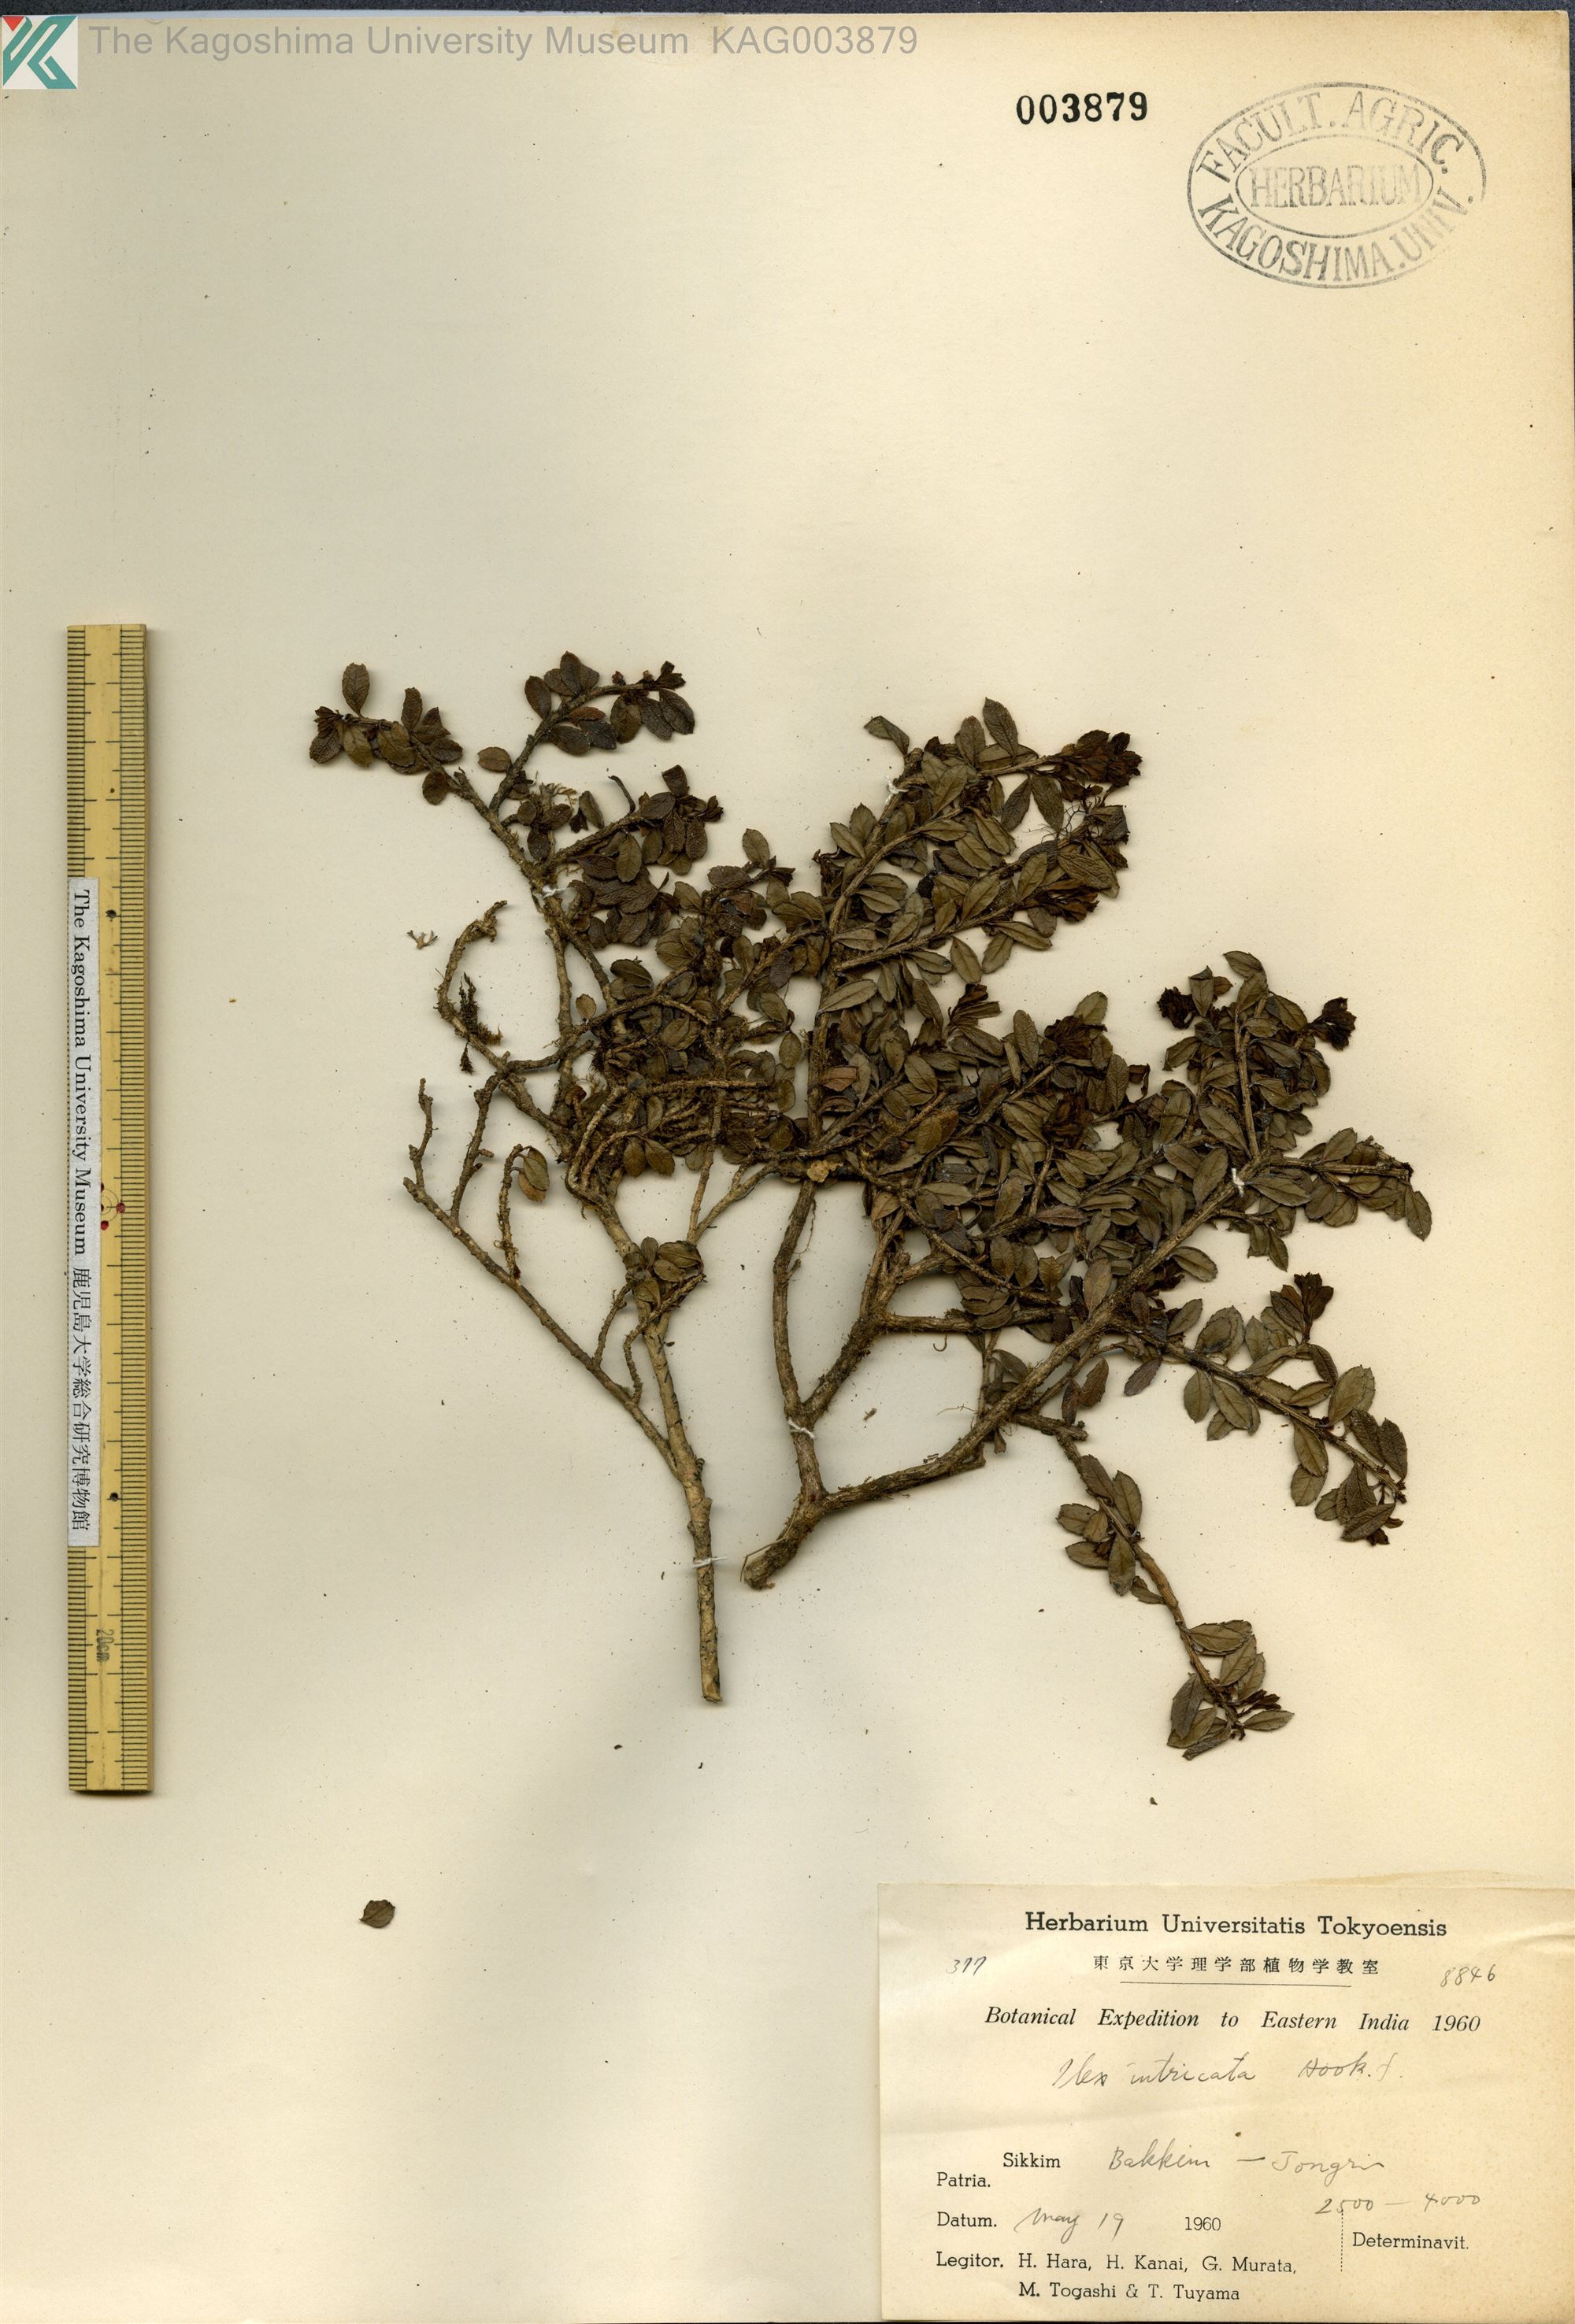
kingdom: Plantae
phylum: Tracheophyta
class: Magnoliopsida
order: Aquifoliales
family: Aquifoliaceae
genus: Ilex
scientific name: Ilex
